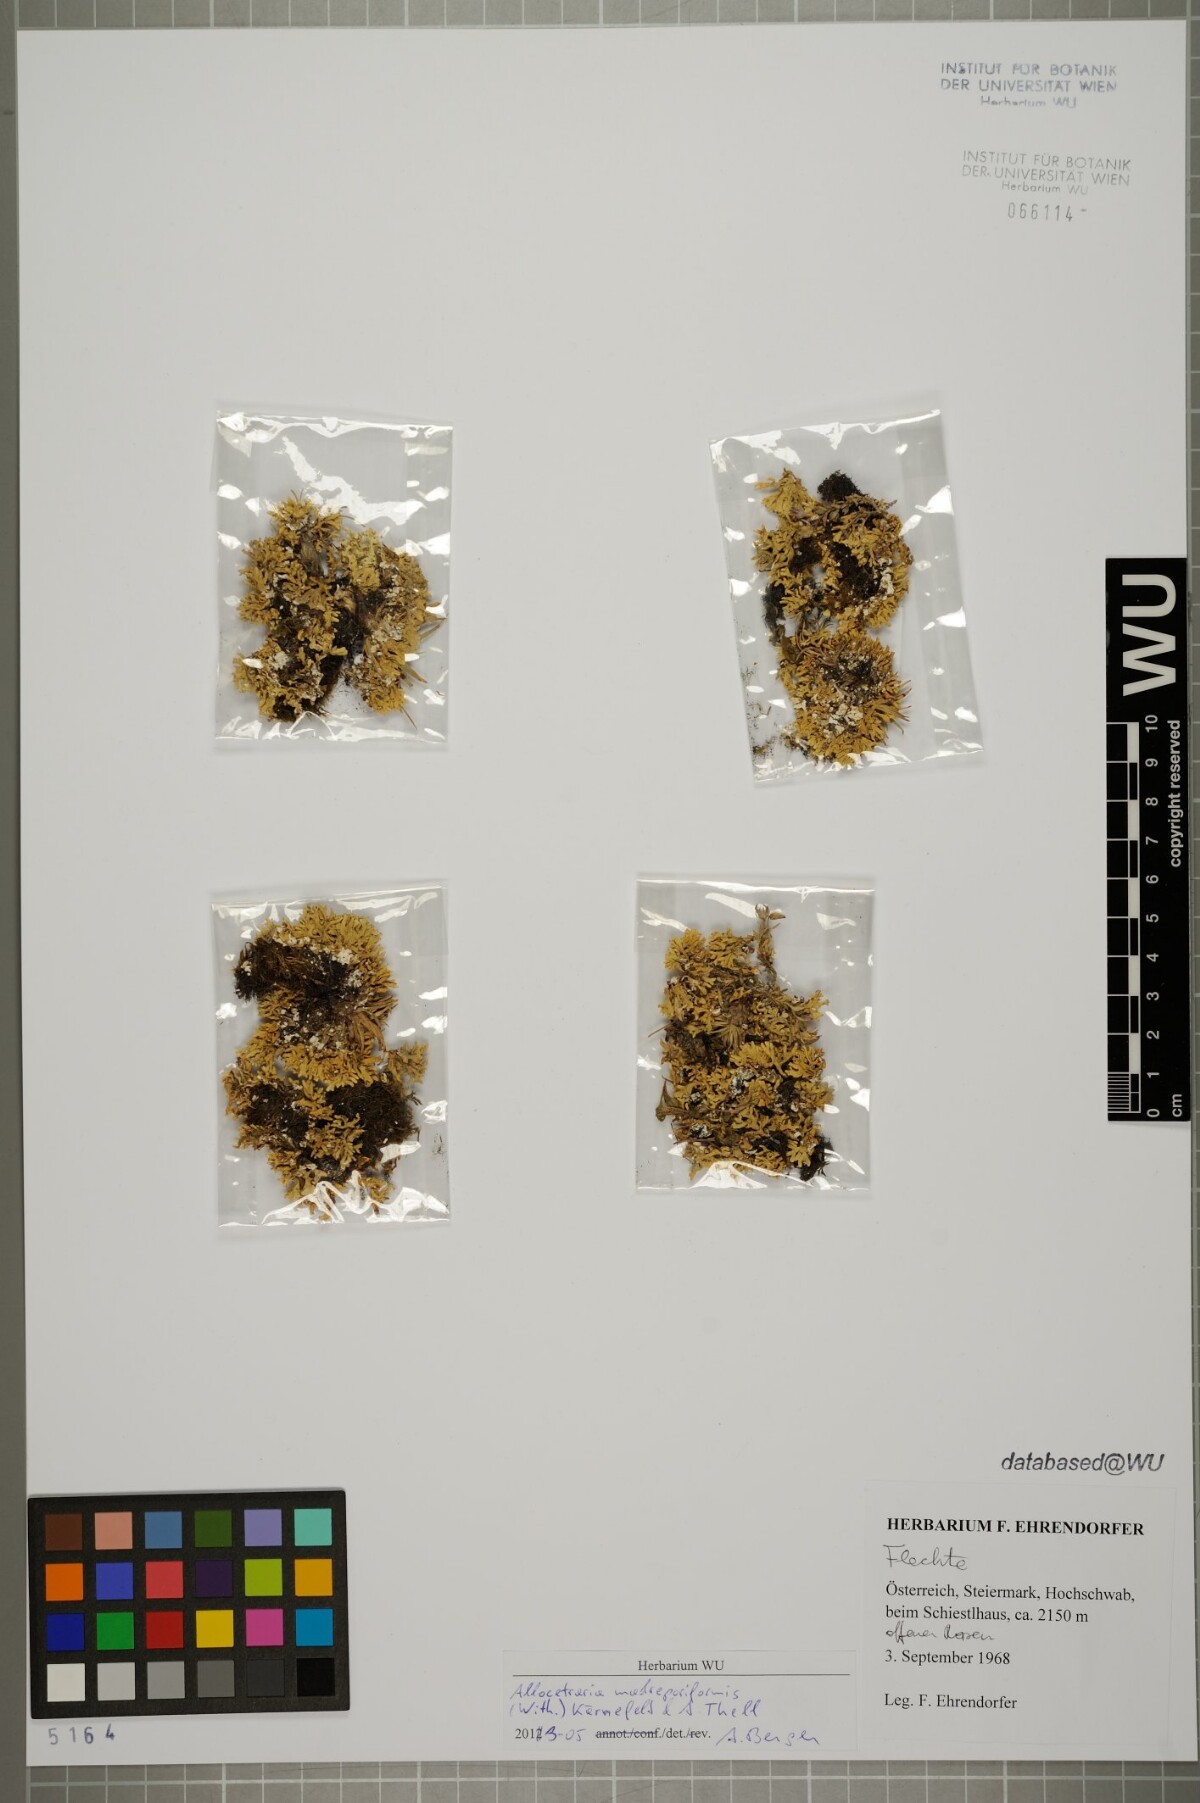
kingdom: Fungi
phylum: Ascomycota
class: Lecanoromycetes
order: Lecanorales
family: Parmeliaceae
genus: Allocetraria
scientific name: Allocetraria madreporiformis
